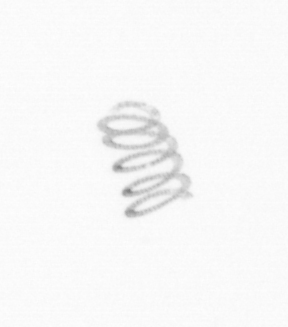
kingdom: Chromista
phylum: Ochrophyta
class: Bacillariophyceae
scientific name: Bacillariophyceae
